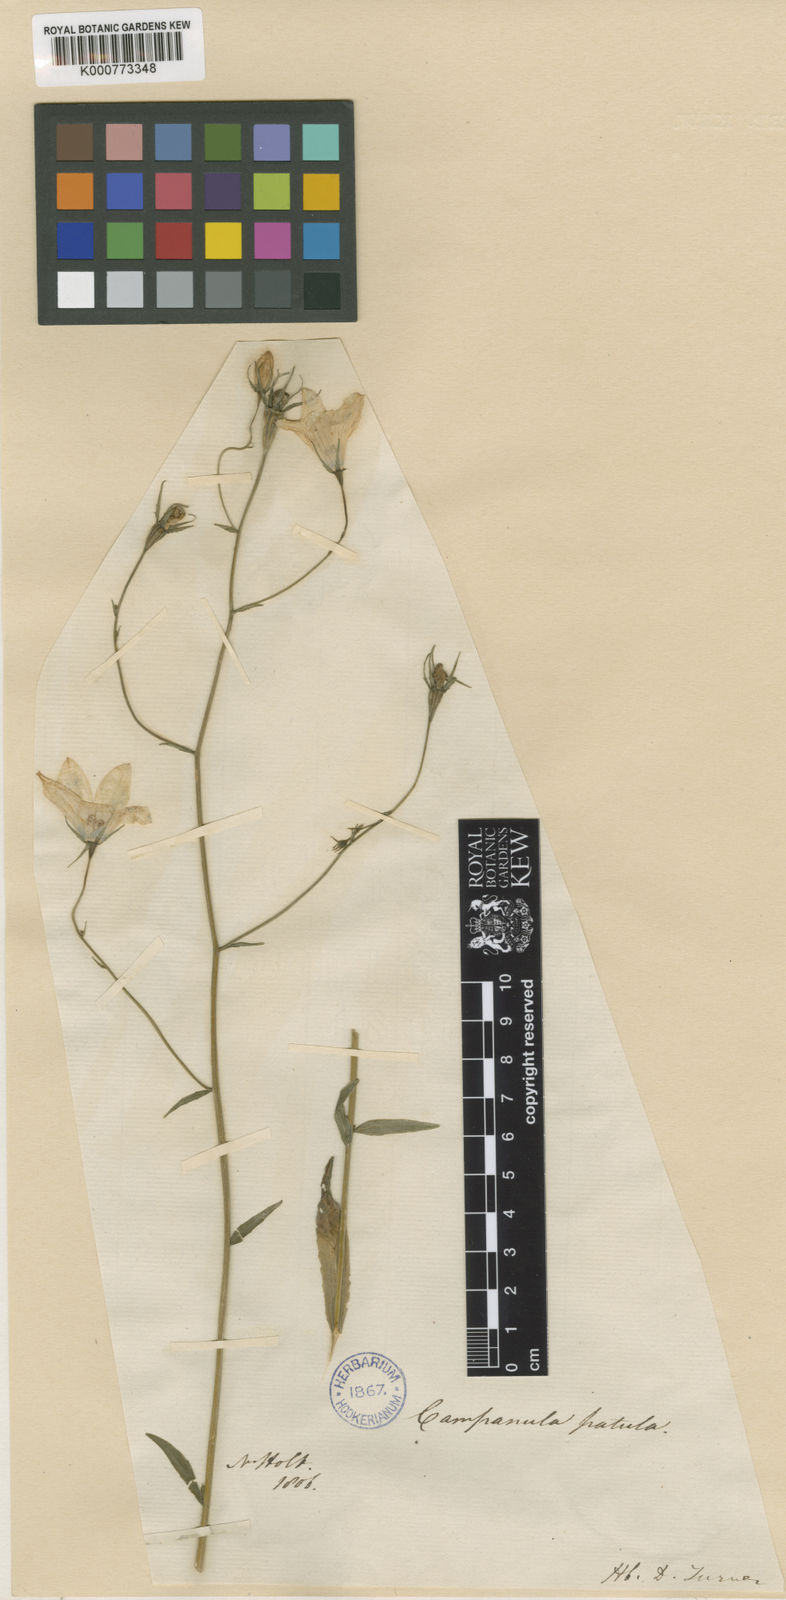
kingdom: Plantae
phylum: Tracheophyta
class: Magnoliopsida
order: Asterales
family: Campanulaceae
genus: Campanula
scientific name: Campanula patula
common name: Spreading bellflower
